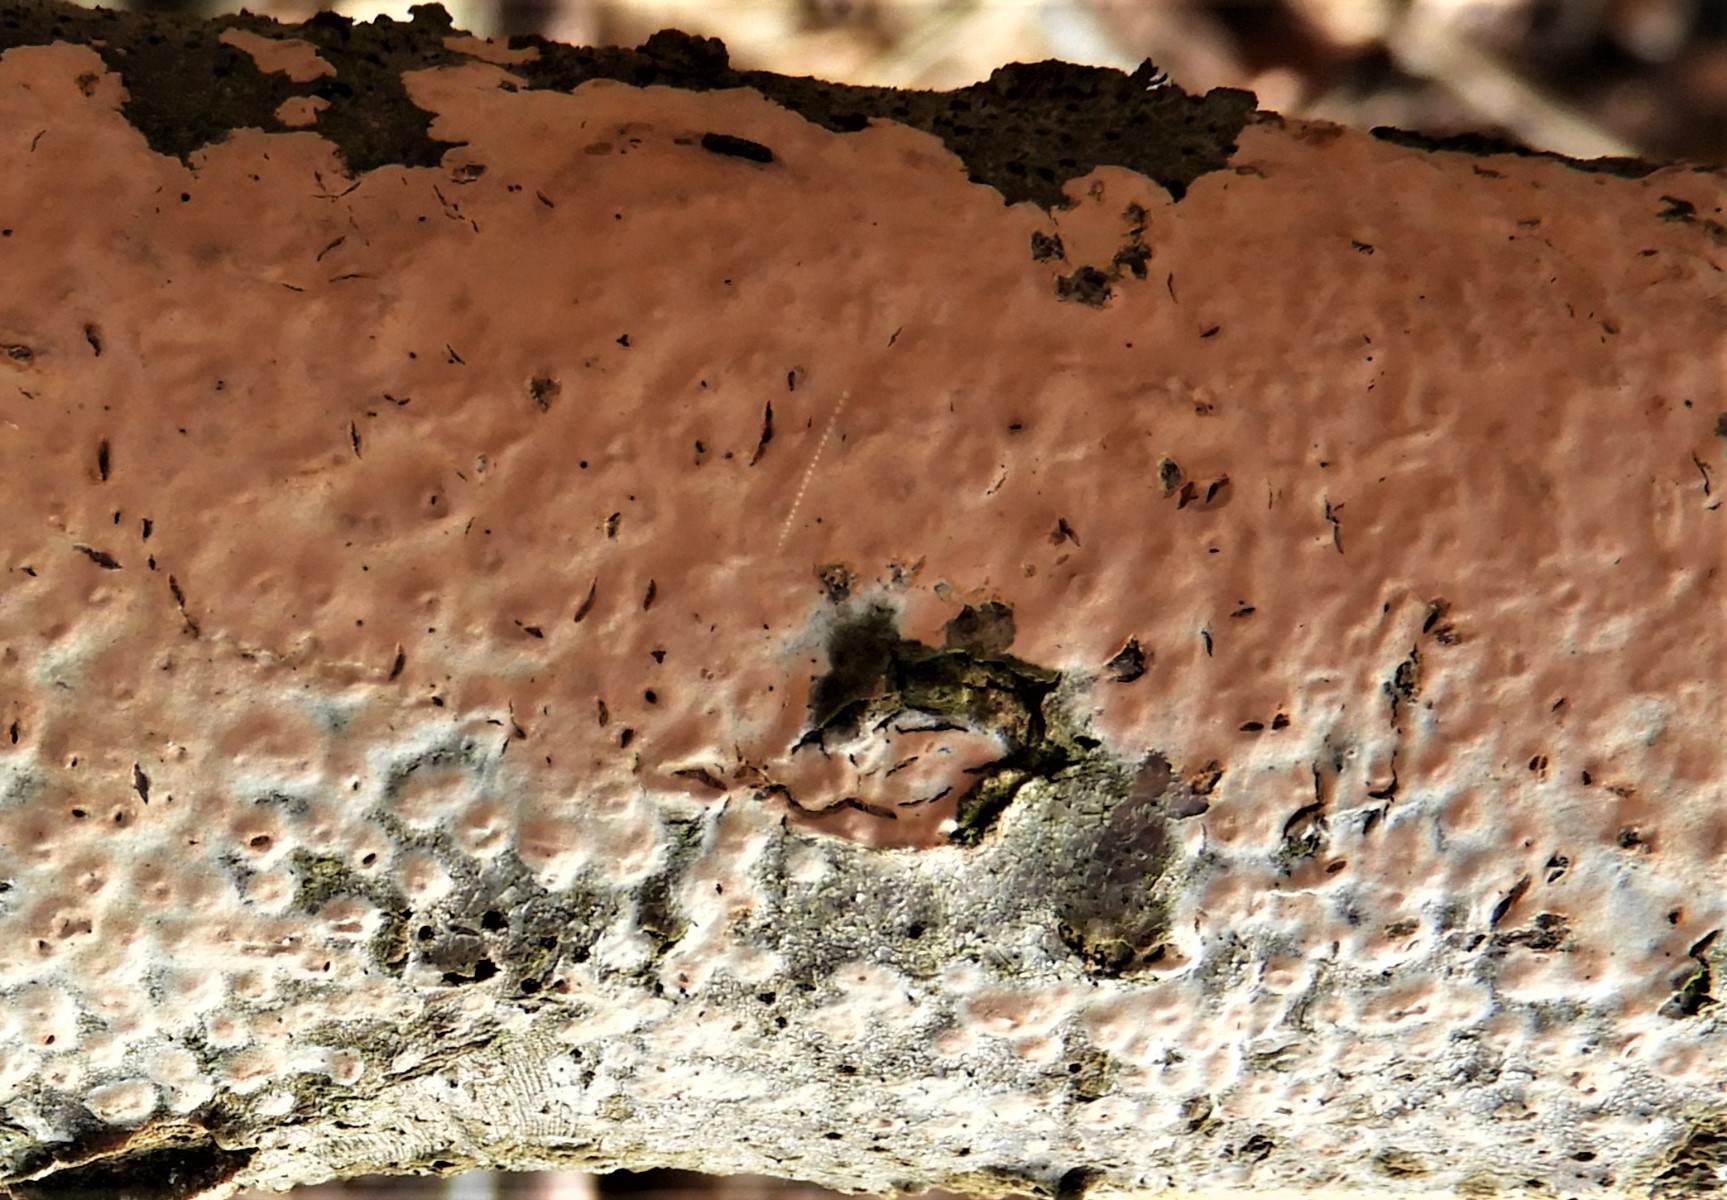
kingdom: Fungi
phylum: Basidiomycota
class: Agaricomycetes
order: Russulales
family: Peniophoraceae
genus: Peniophora
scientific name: Peniophora incarnata
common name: laksefarvet voksskind
